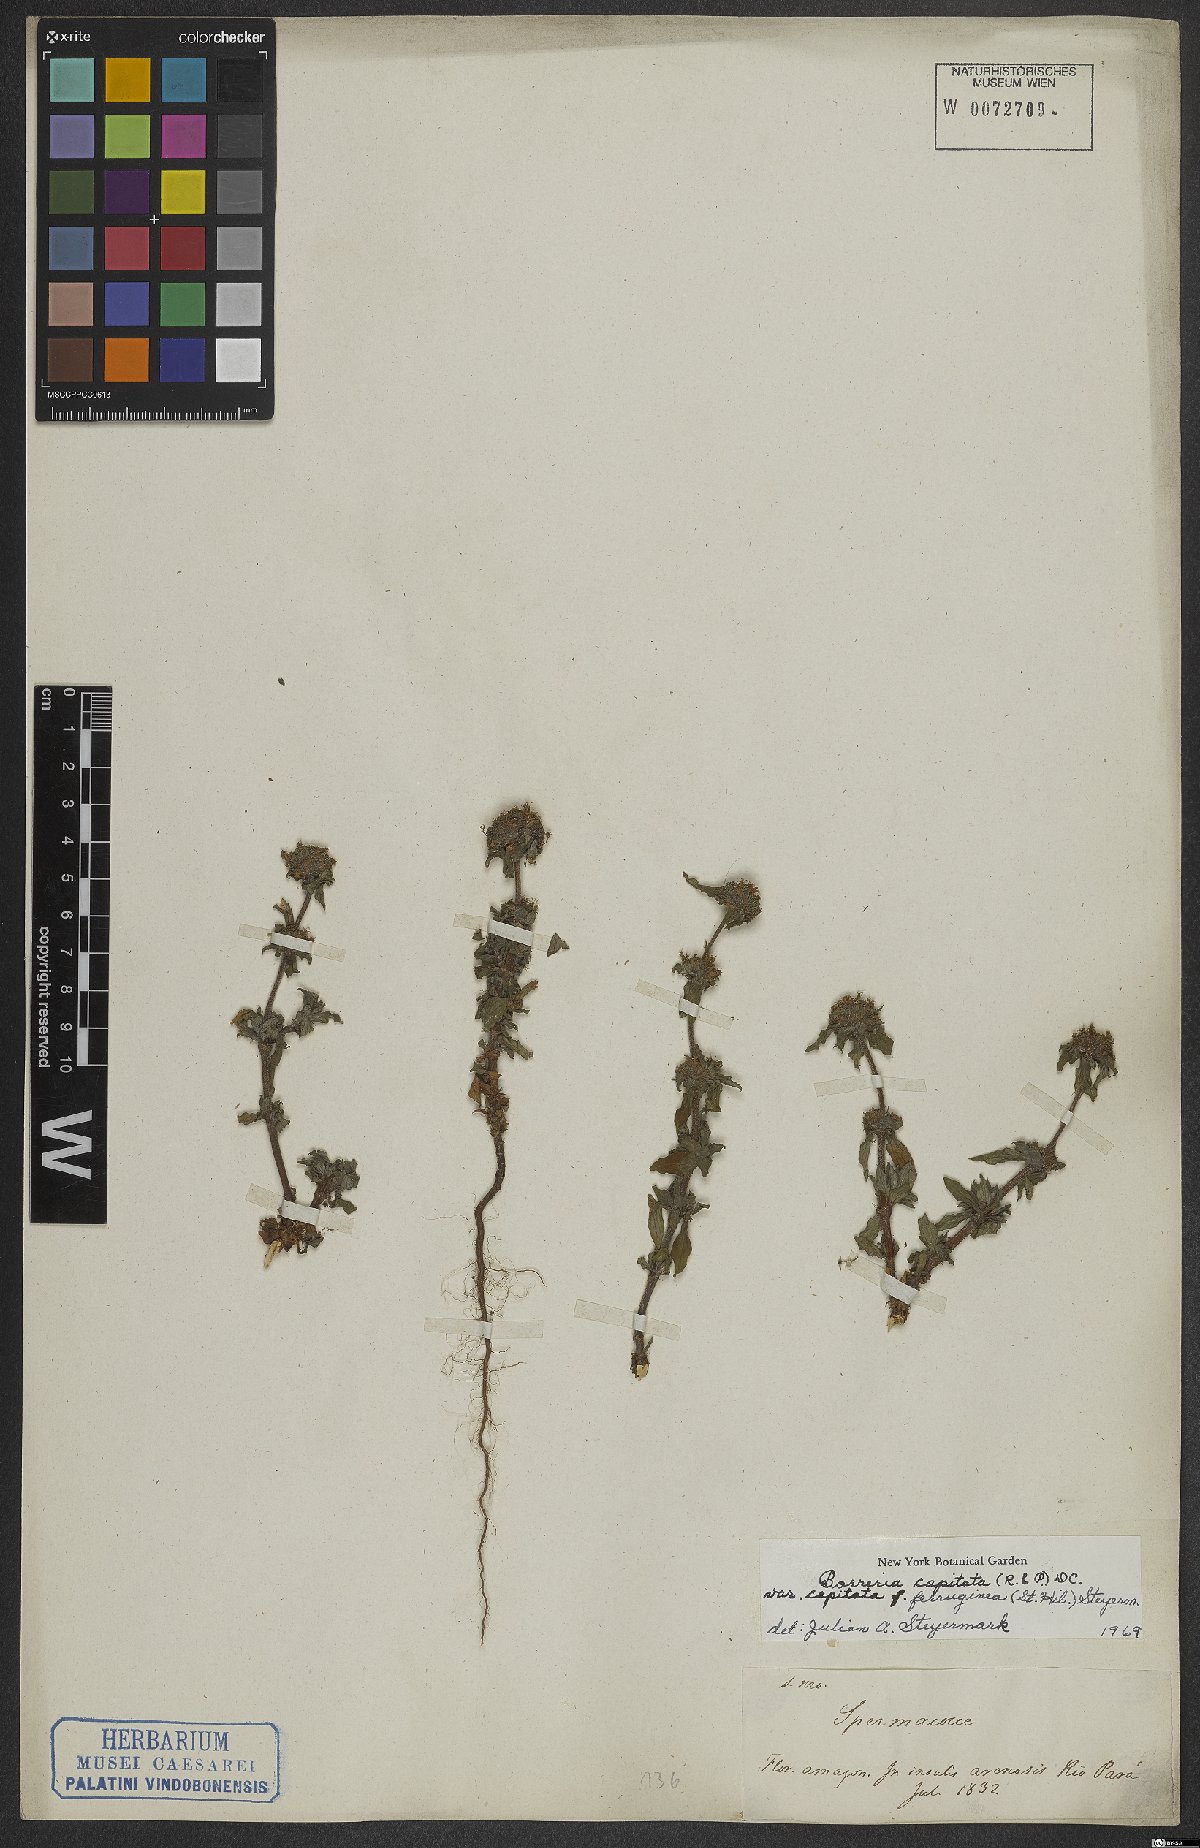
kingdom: Plantae
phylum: Tracheophyta
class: Magnoliopsida
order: Gentianales
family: Rubiaceae
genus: Spermacoce
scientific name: Spermacoce capitata
